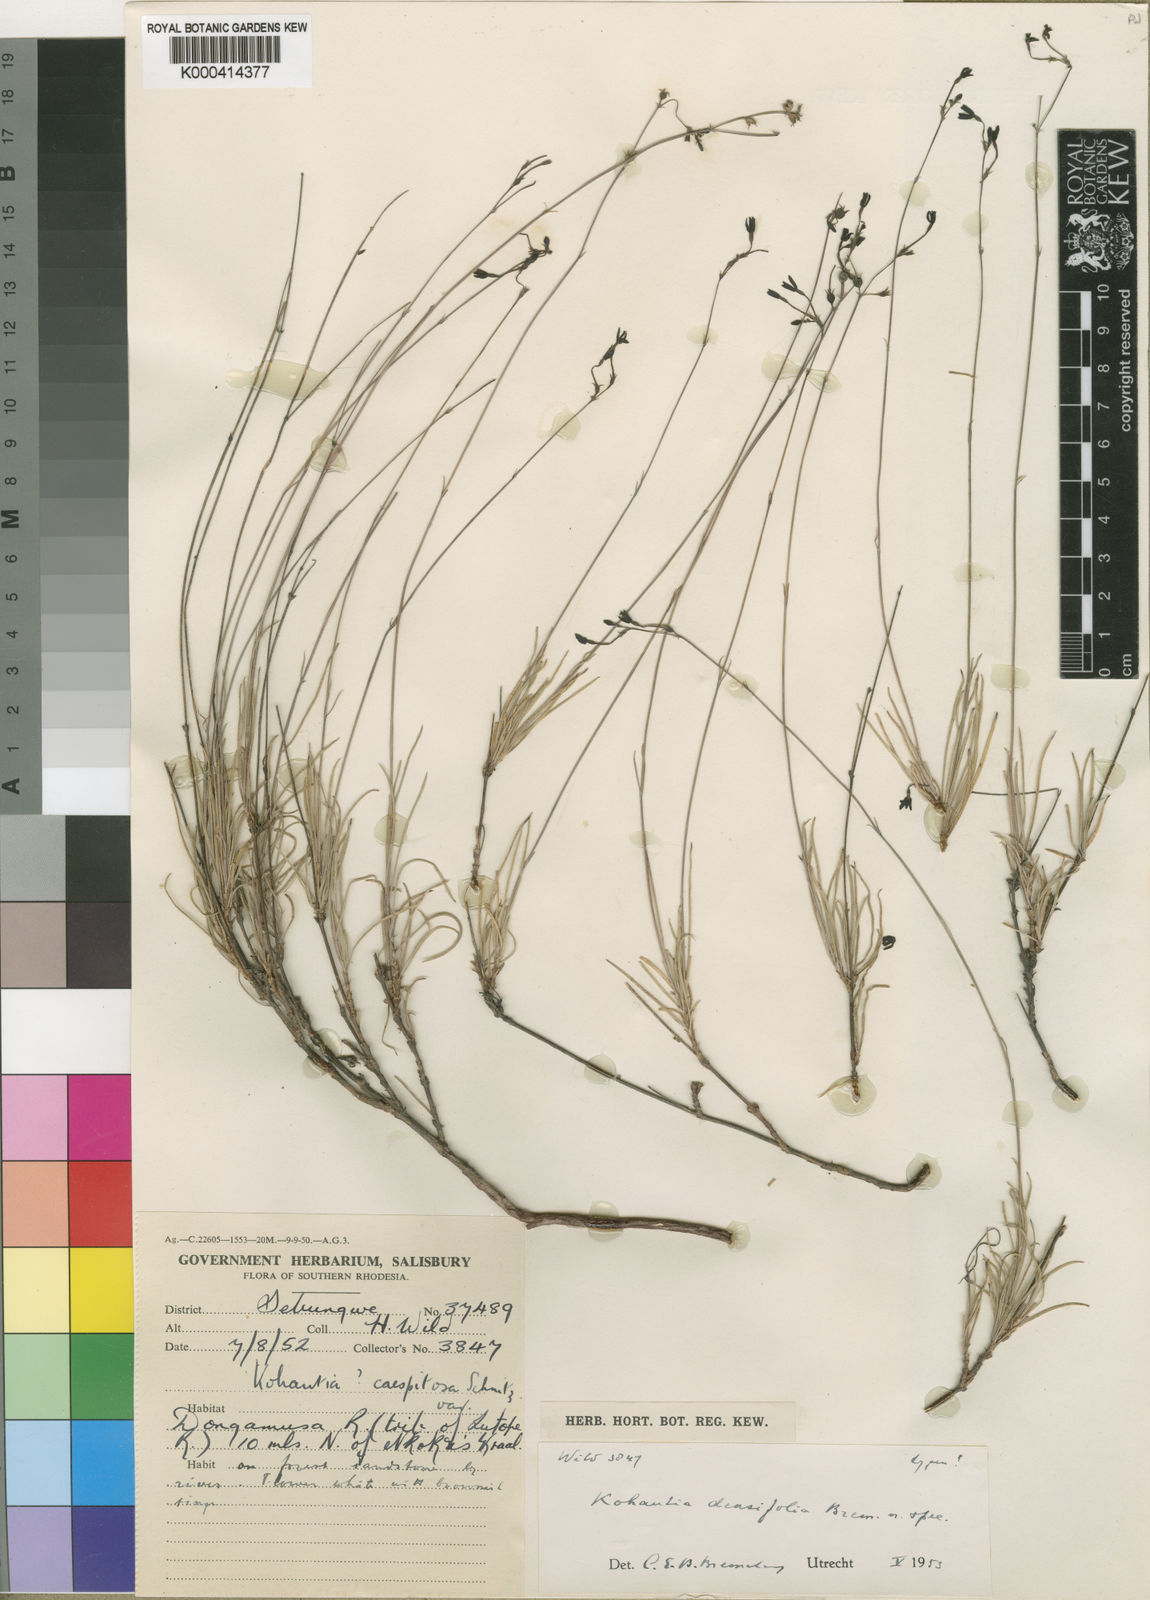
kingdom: Plantae
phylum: Tracheophyta
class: Magnoliopsida
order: Gentianales
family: Rubiaceae
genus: Kohautia
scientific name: Kohautia caespitosa
